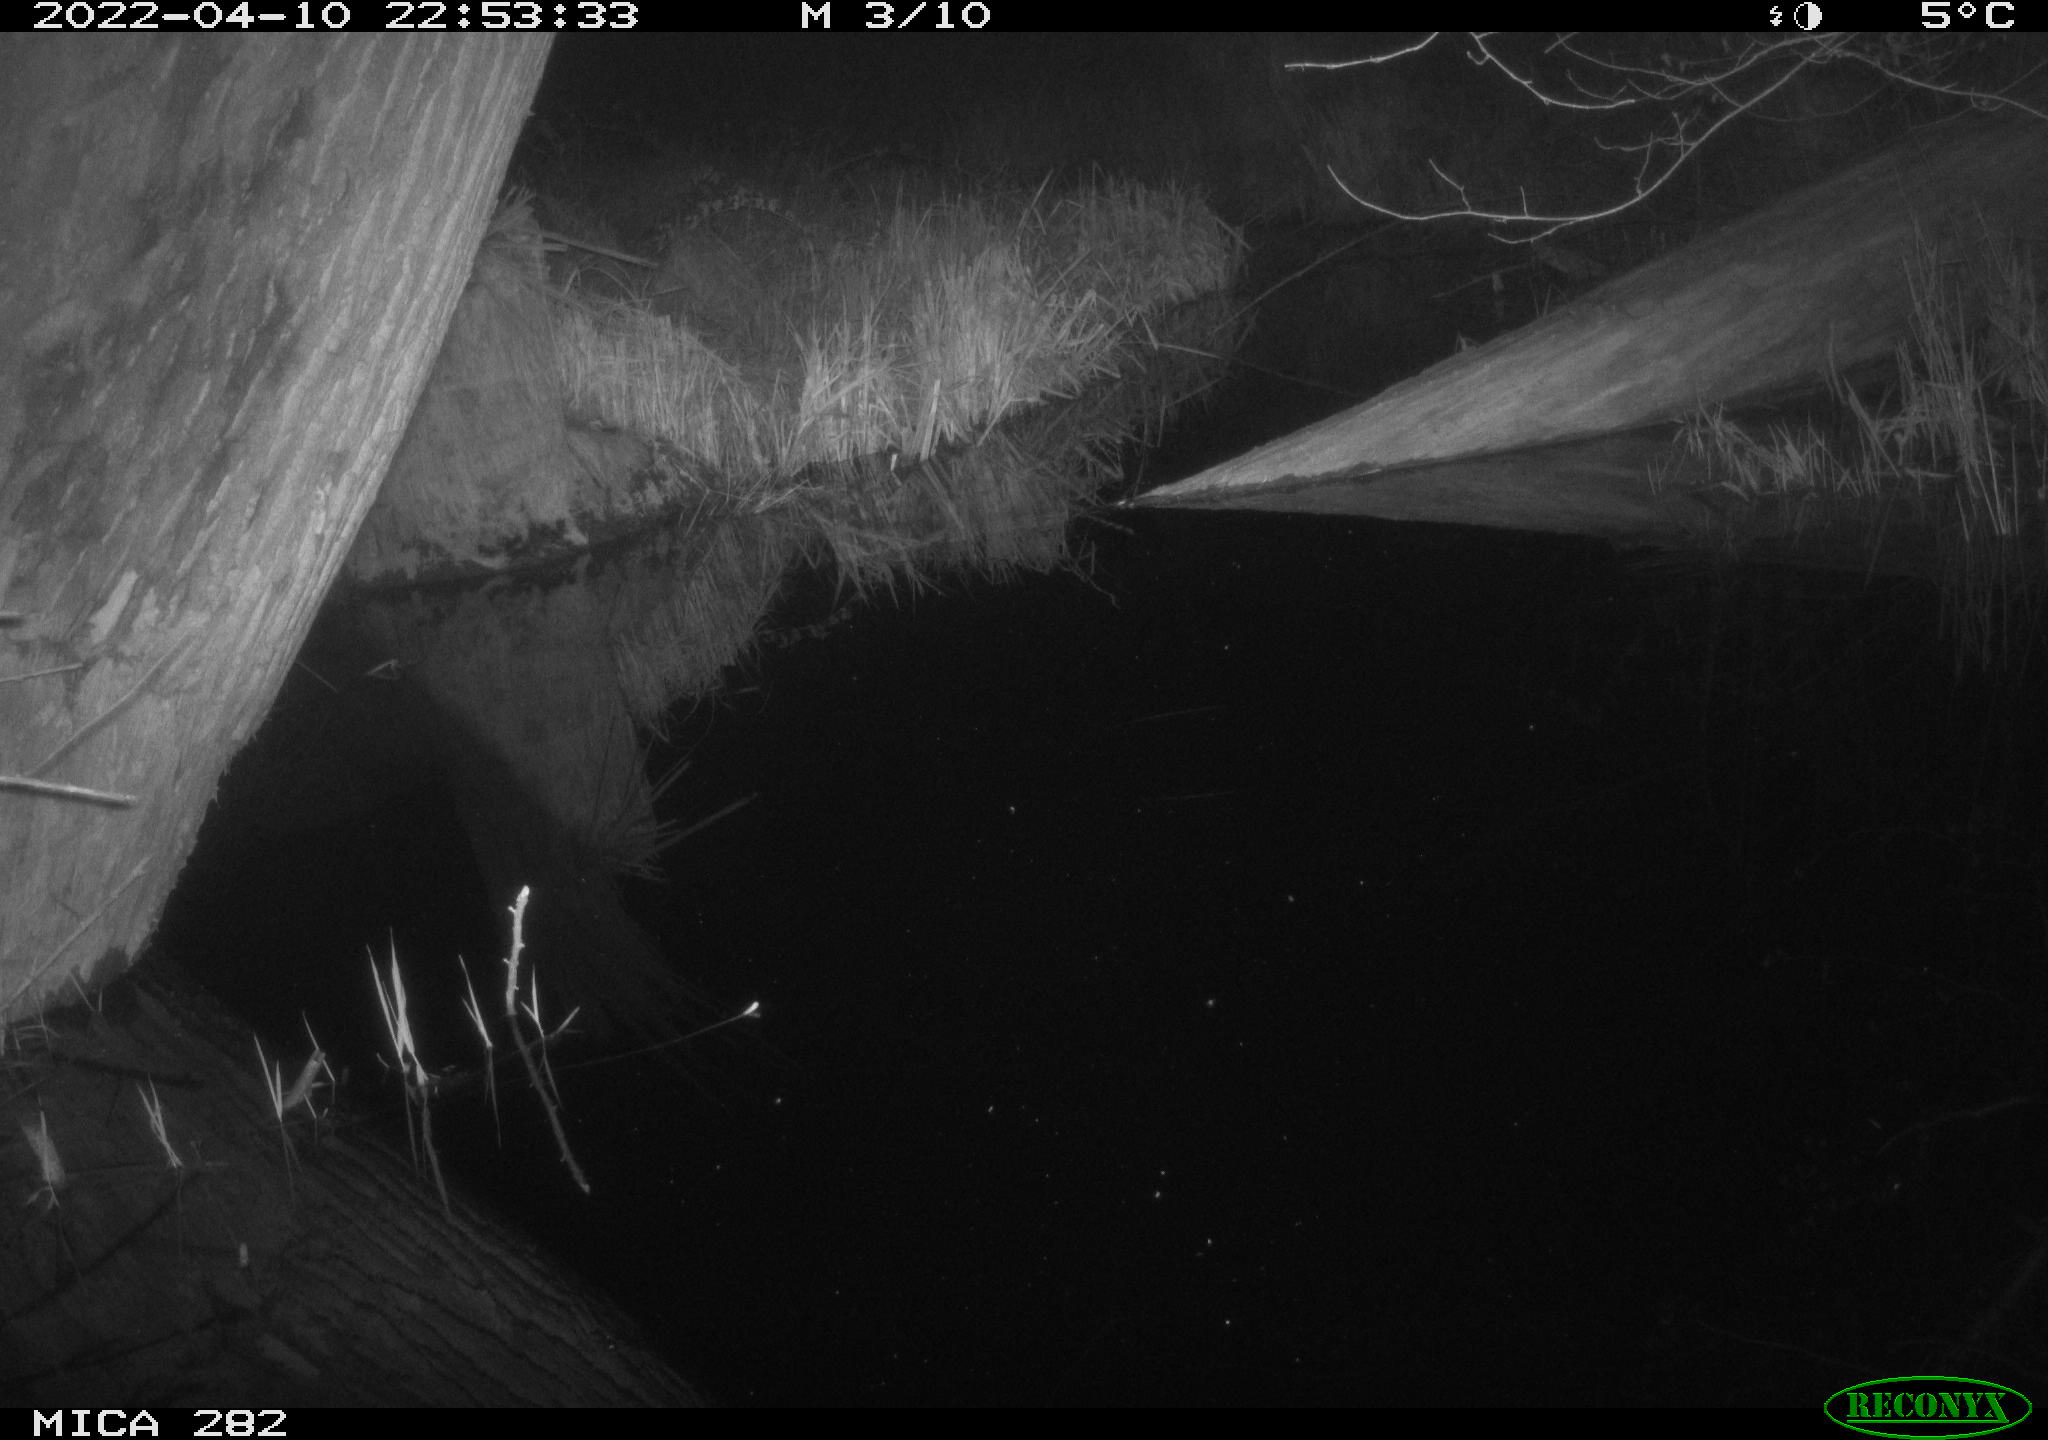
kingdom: Animalia
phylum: Chordata
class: Mammalia
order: Carnivora
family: Canidae
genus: Vulpes
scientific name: Vulpes vulpes
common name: Red fox
